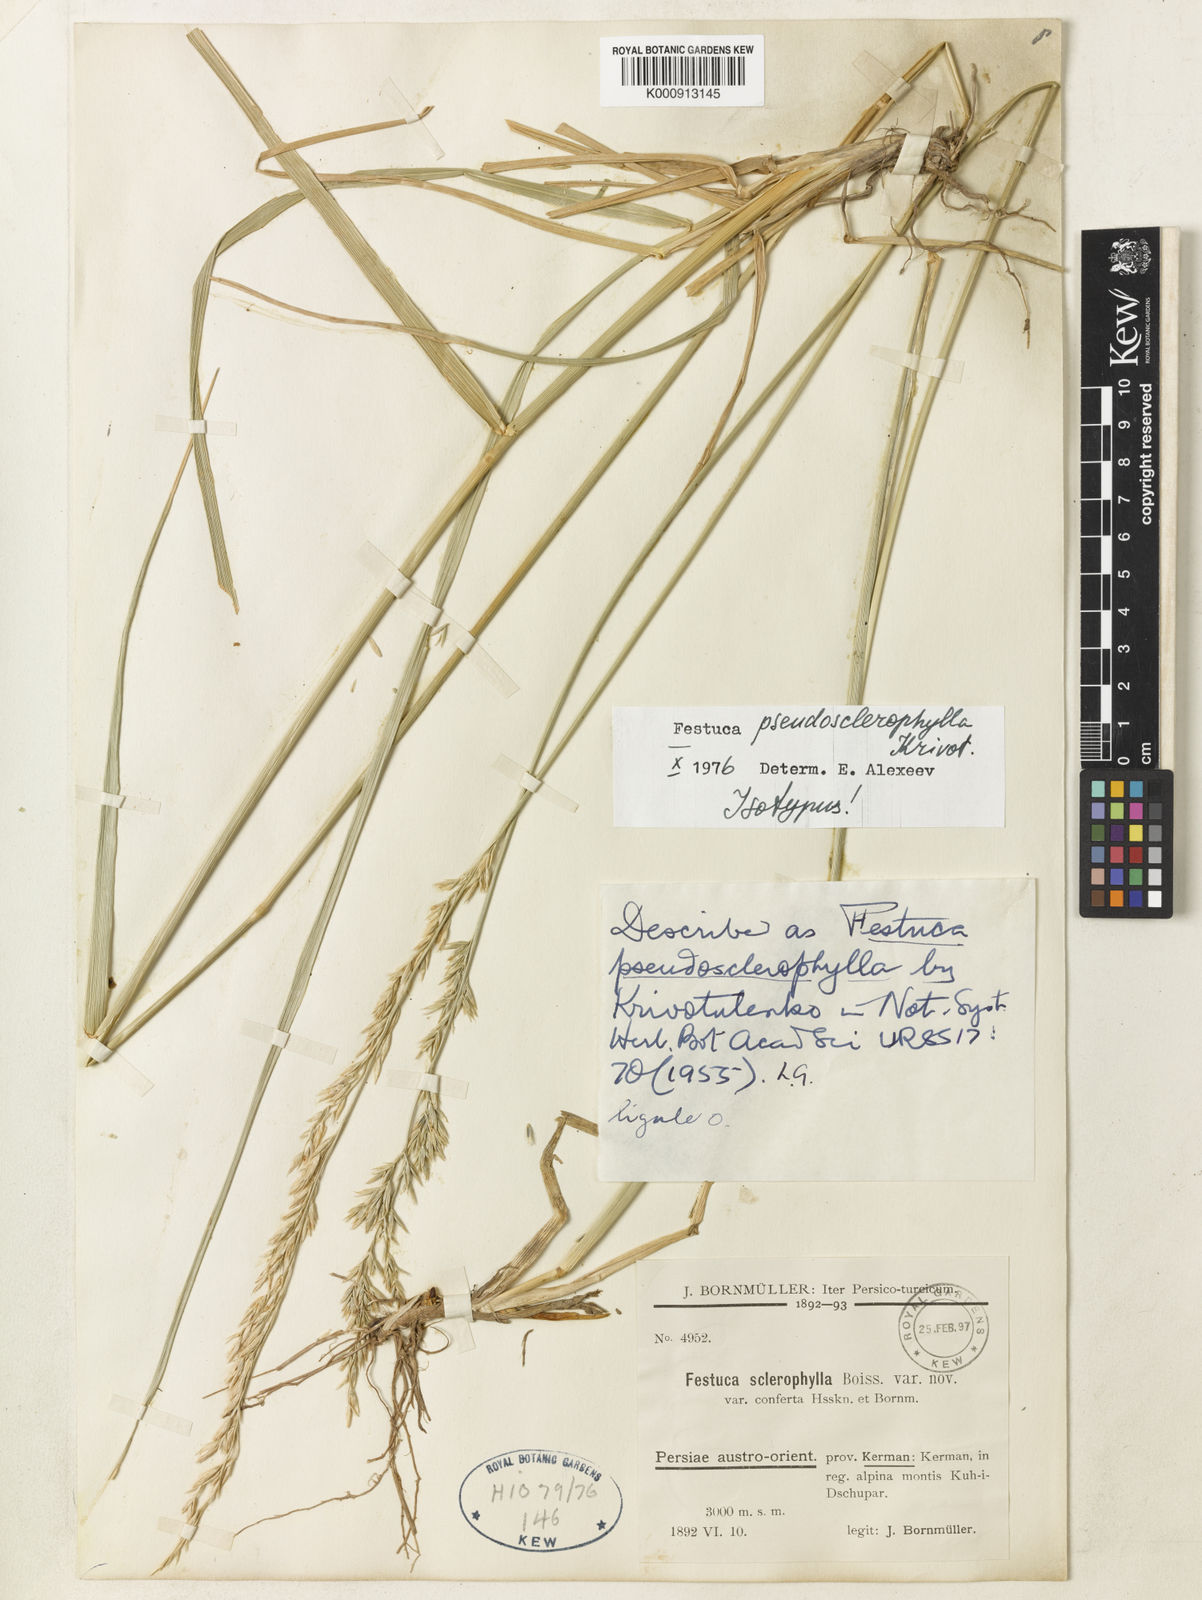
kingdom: Plantae
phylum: Tracheophyta
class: Liliopsida
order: Poales
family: Poaceae
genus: Festuca
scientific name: Festuca pseudosclerophylla
